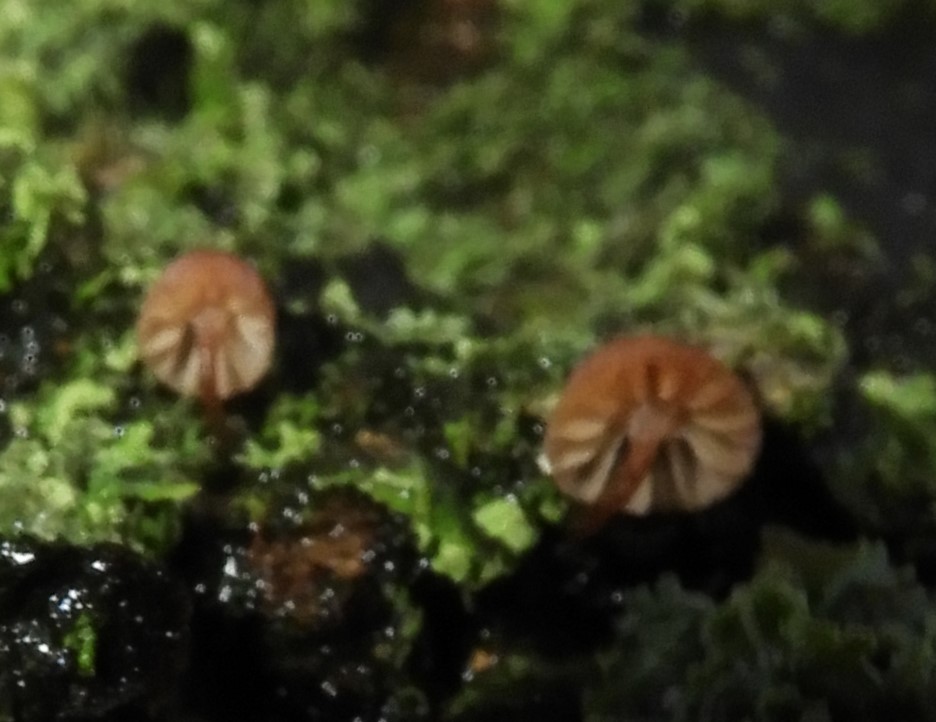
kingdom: Fungi
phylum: Basidiomycota
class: Agaricomycetes
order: Agaricales
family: Mycenaceae
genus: Mycena
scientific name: Mycena meliigena
